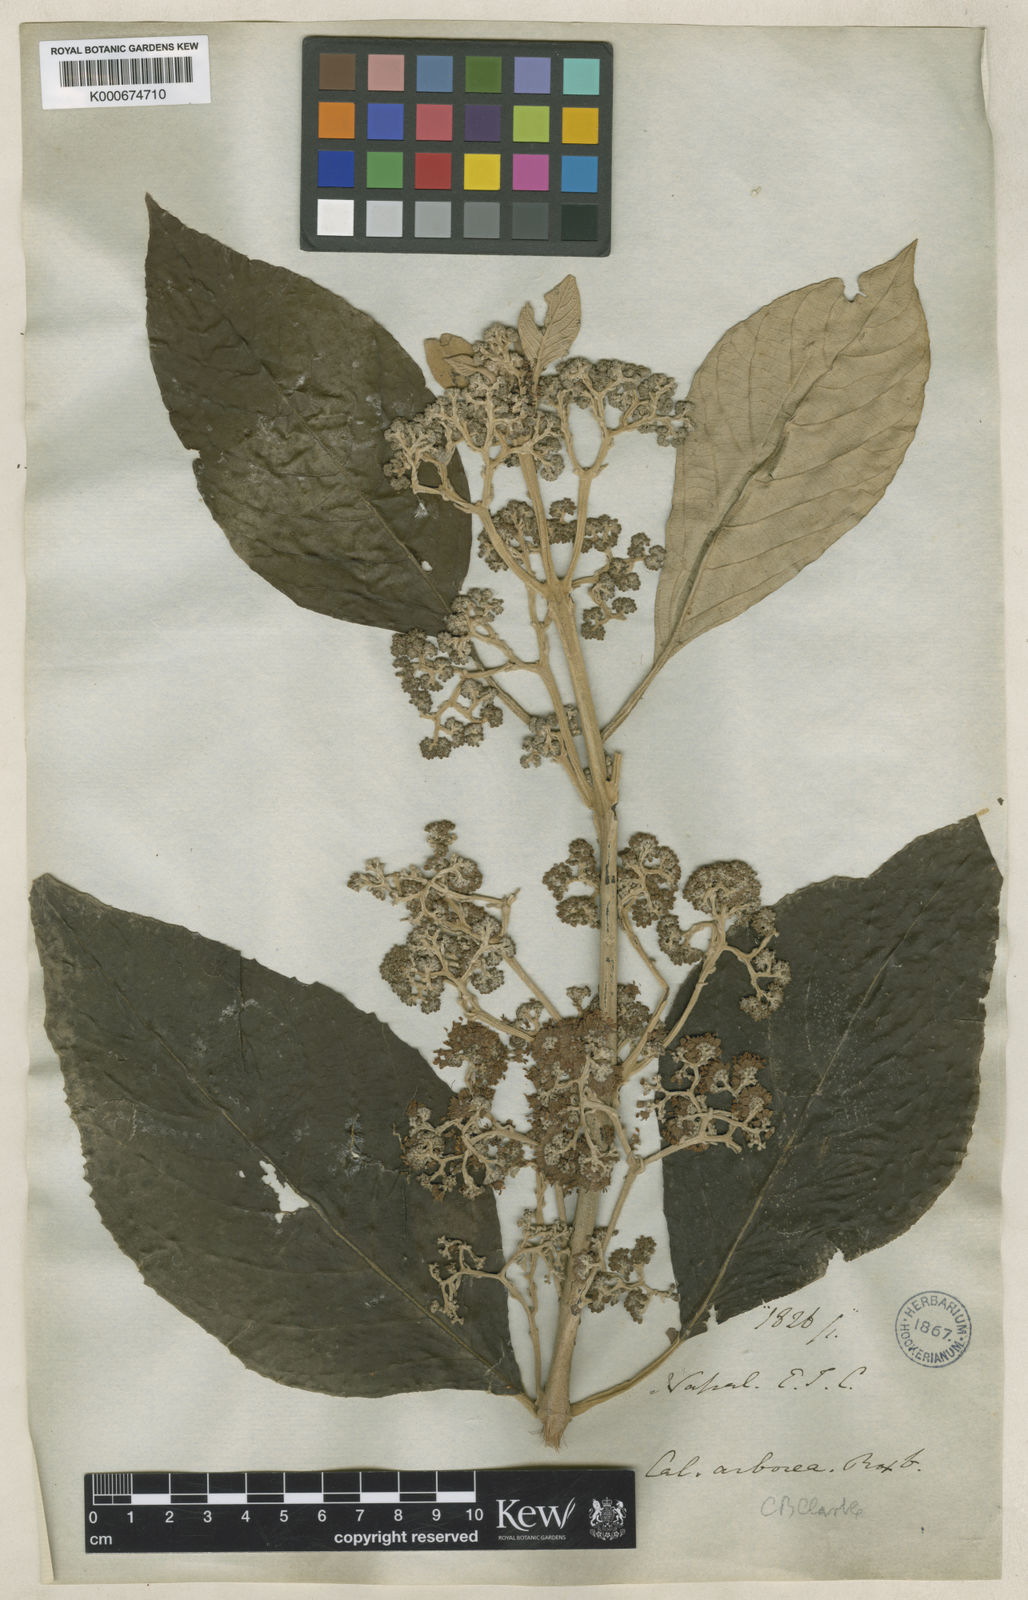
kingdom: Plantae
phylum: Tracheophyta
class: Magnoliopsida
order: Lamiales
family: Lamiaceae
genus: Callicarpa
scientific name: Callicarpa arborea
